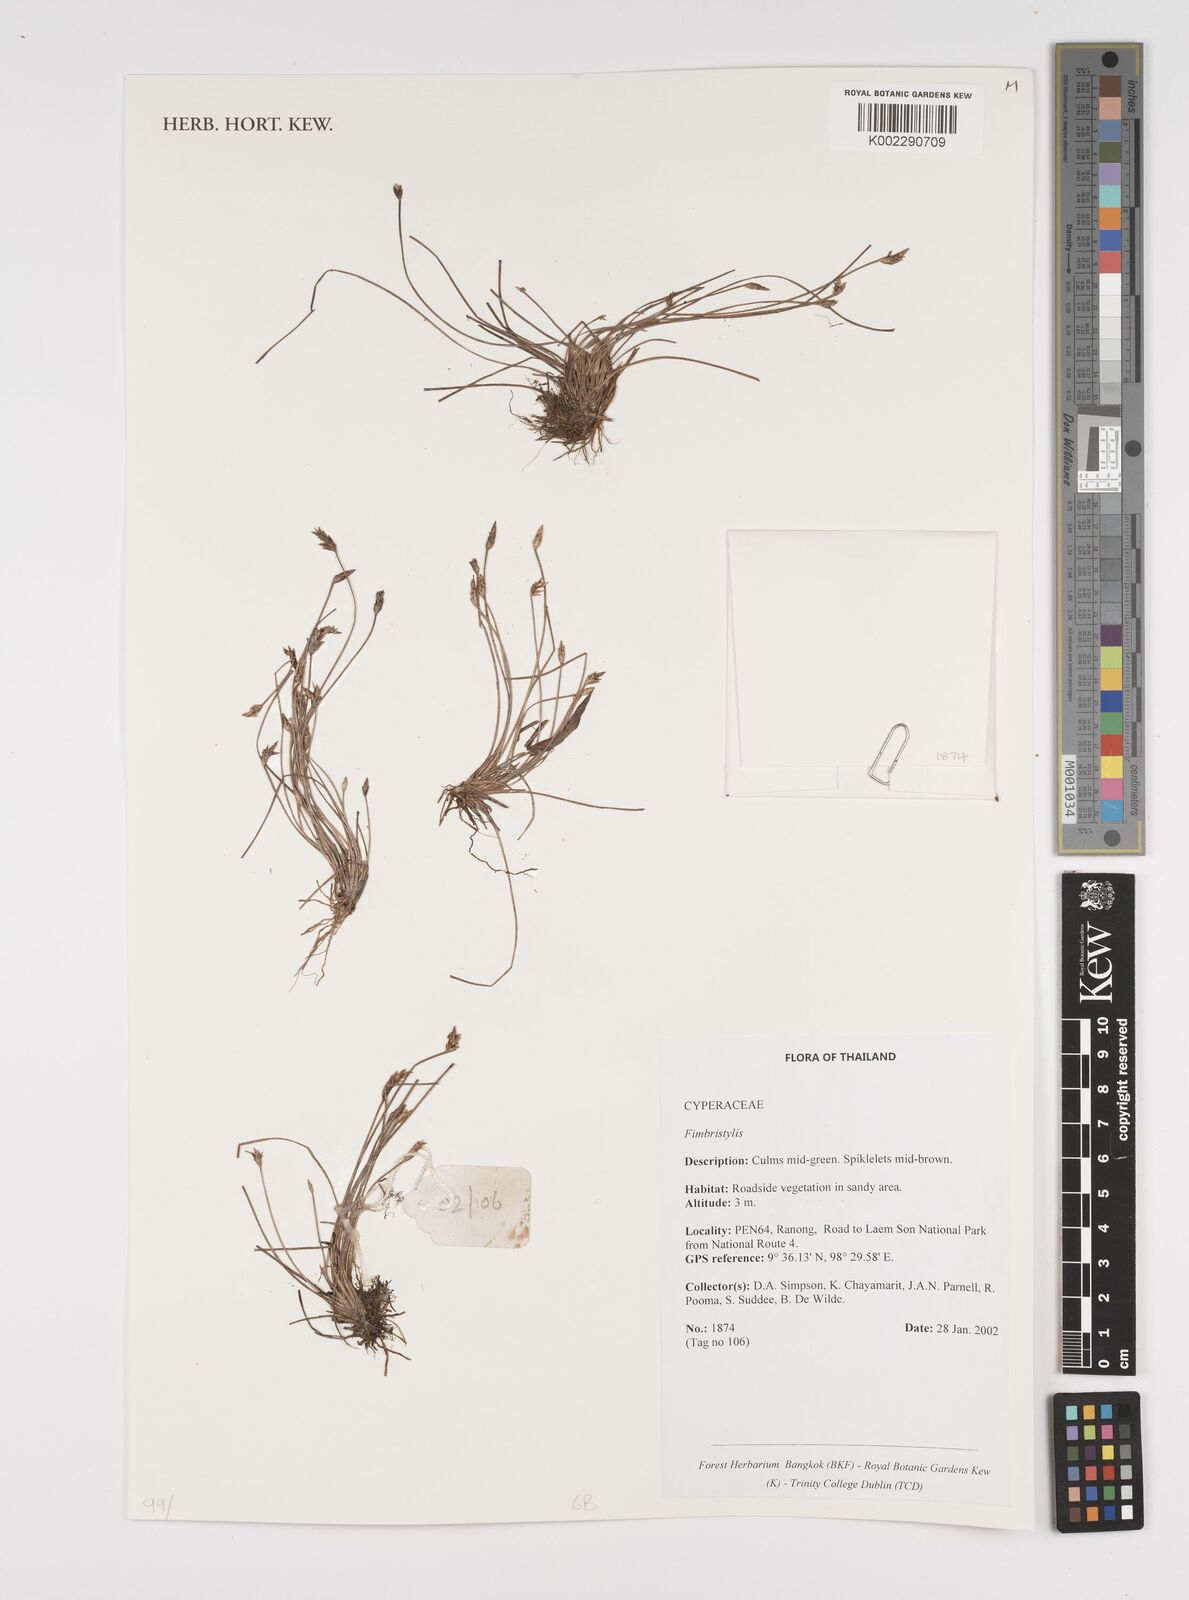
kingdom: Plantae
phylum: Tracheophyta
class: Liliopsida
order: Poales
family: Cyperaceae
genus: Fimbristylis
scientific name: Fimbristylis
